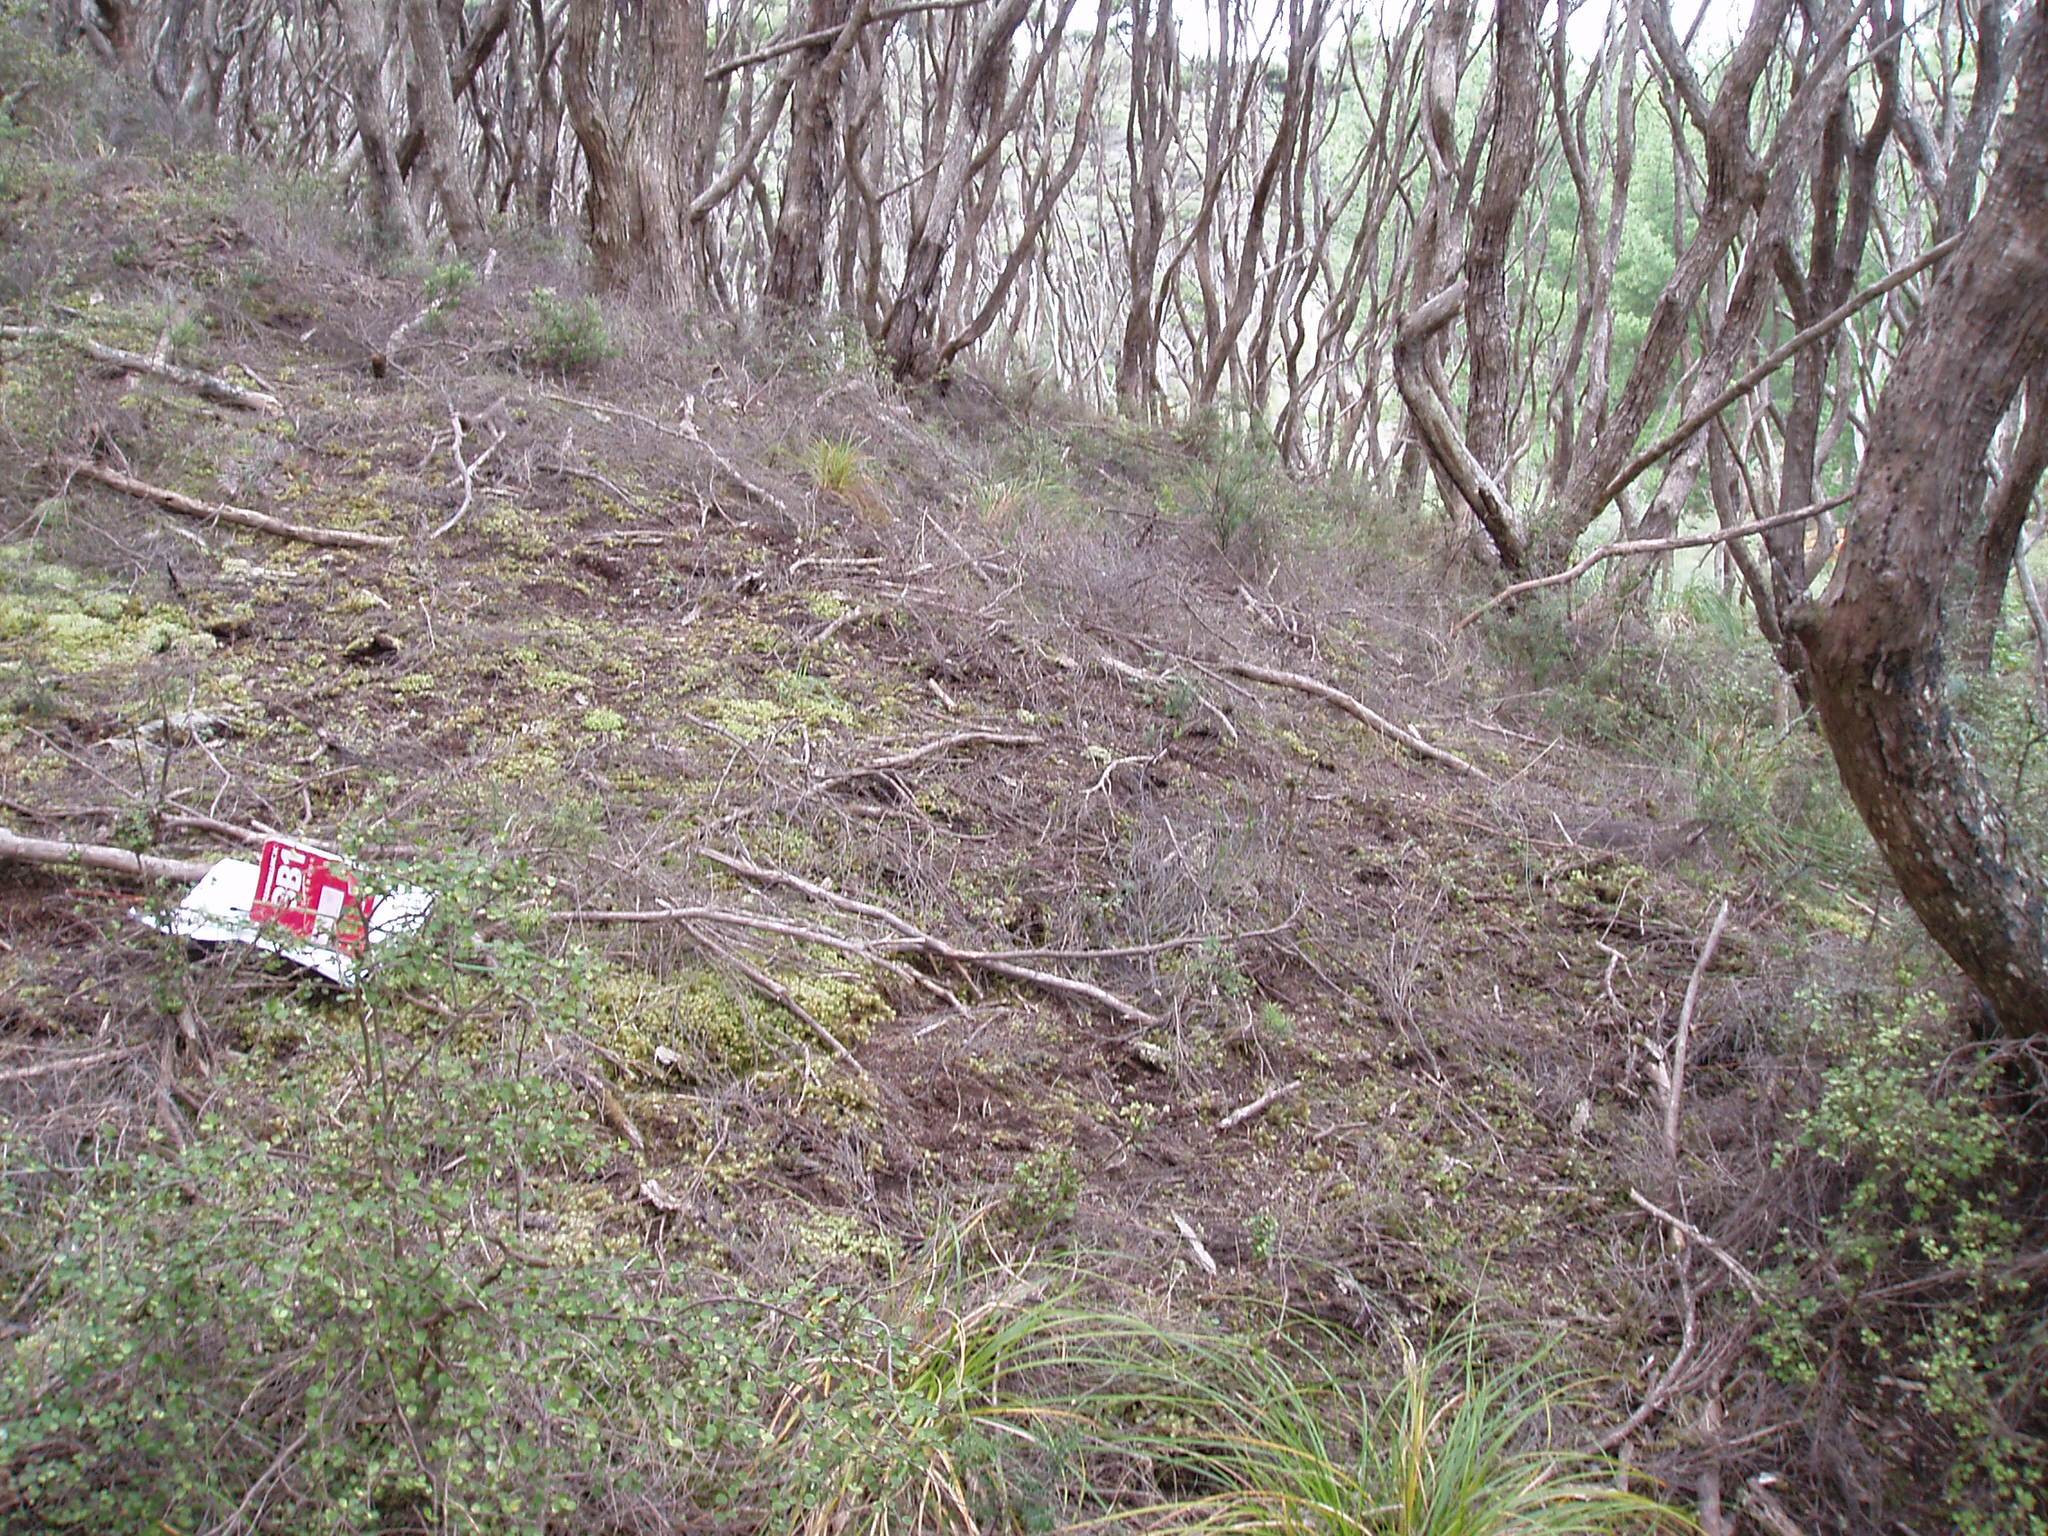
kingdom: Plantae
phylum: Tracheophyta
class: Magnoliopsida
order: Fabales
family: Fabaceae
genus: Lupinus
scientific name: Lupinus arboreus
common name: Yellow bush lupine
